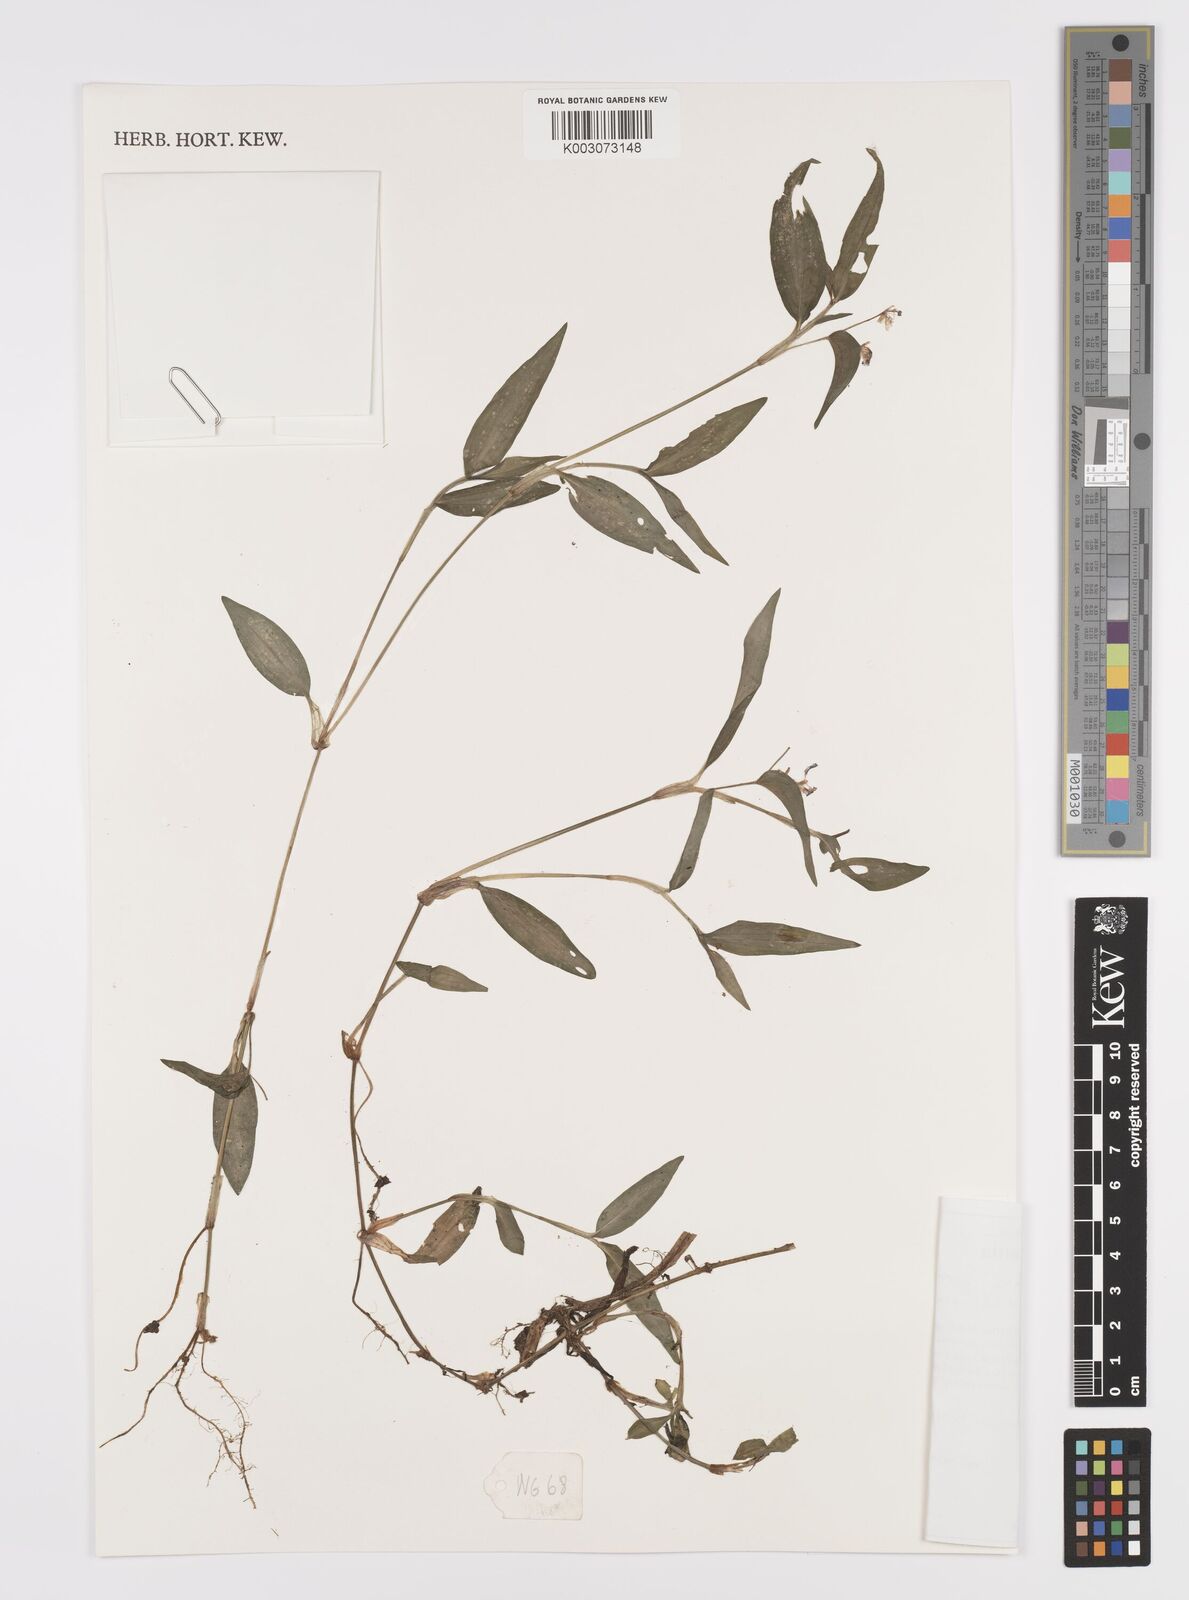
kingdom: Plantae
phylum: Tracheophyta
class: Liliopsida
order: Commelinales
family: Commelinaceae
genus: Commelina
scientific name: Commelina diffusa
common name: Climbing dayflower
